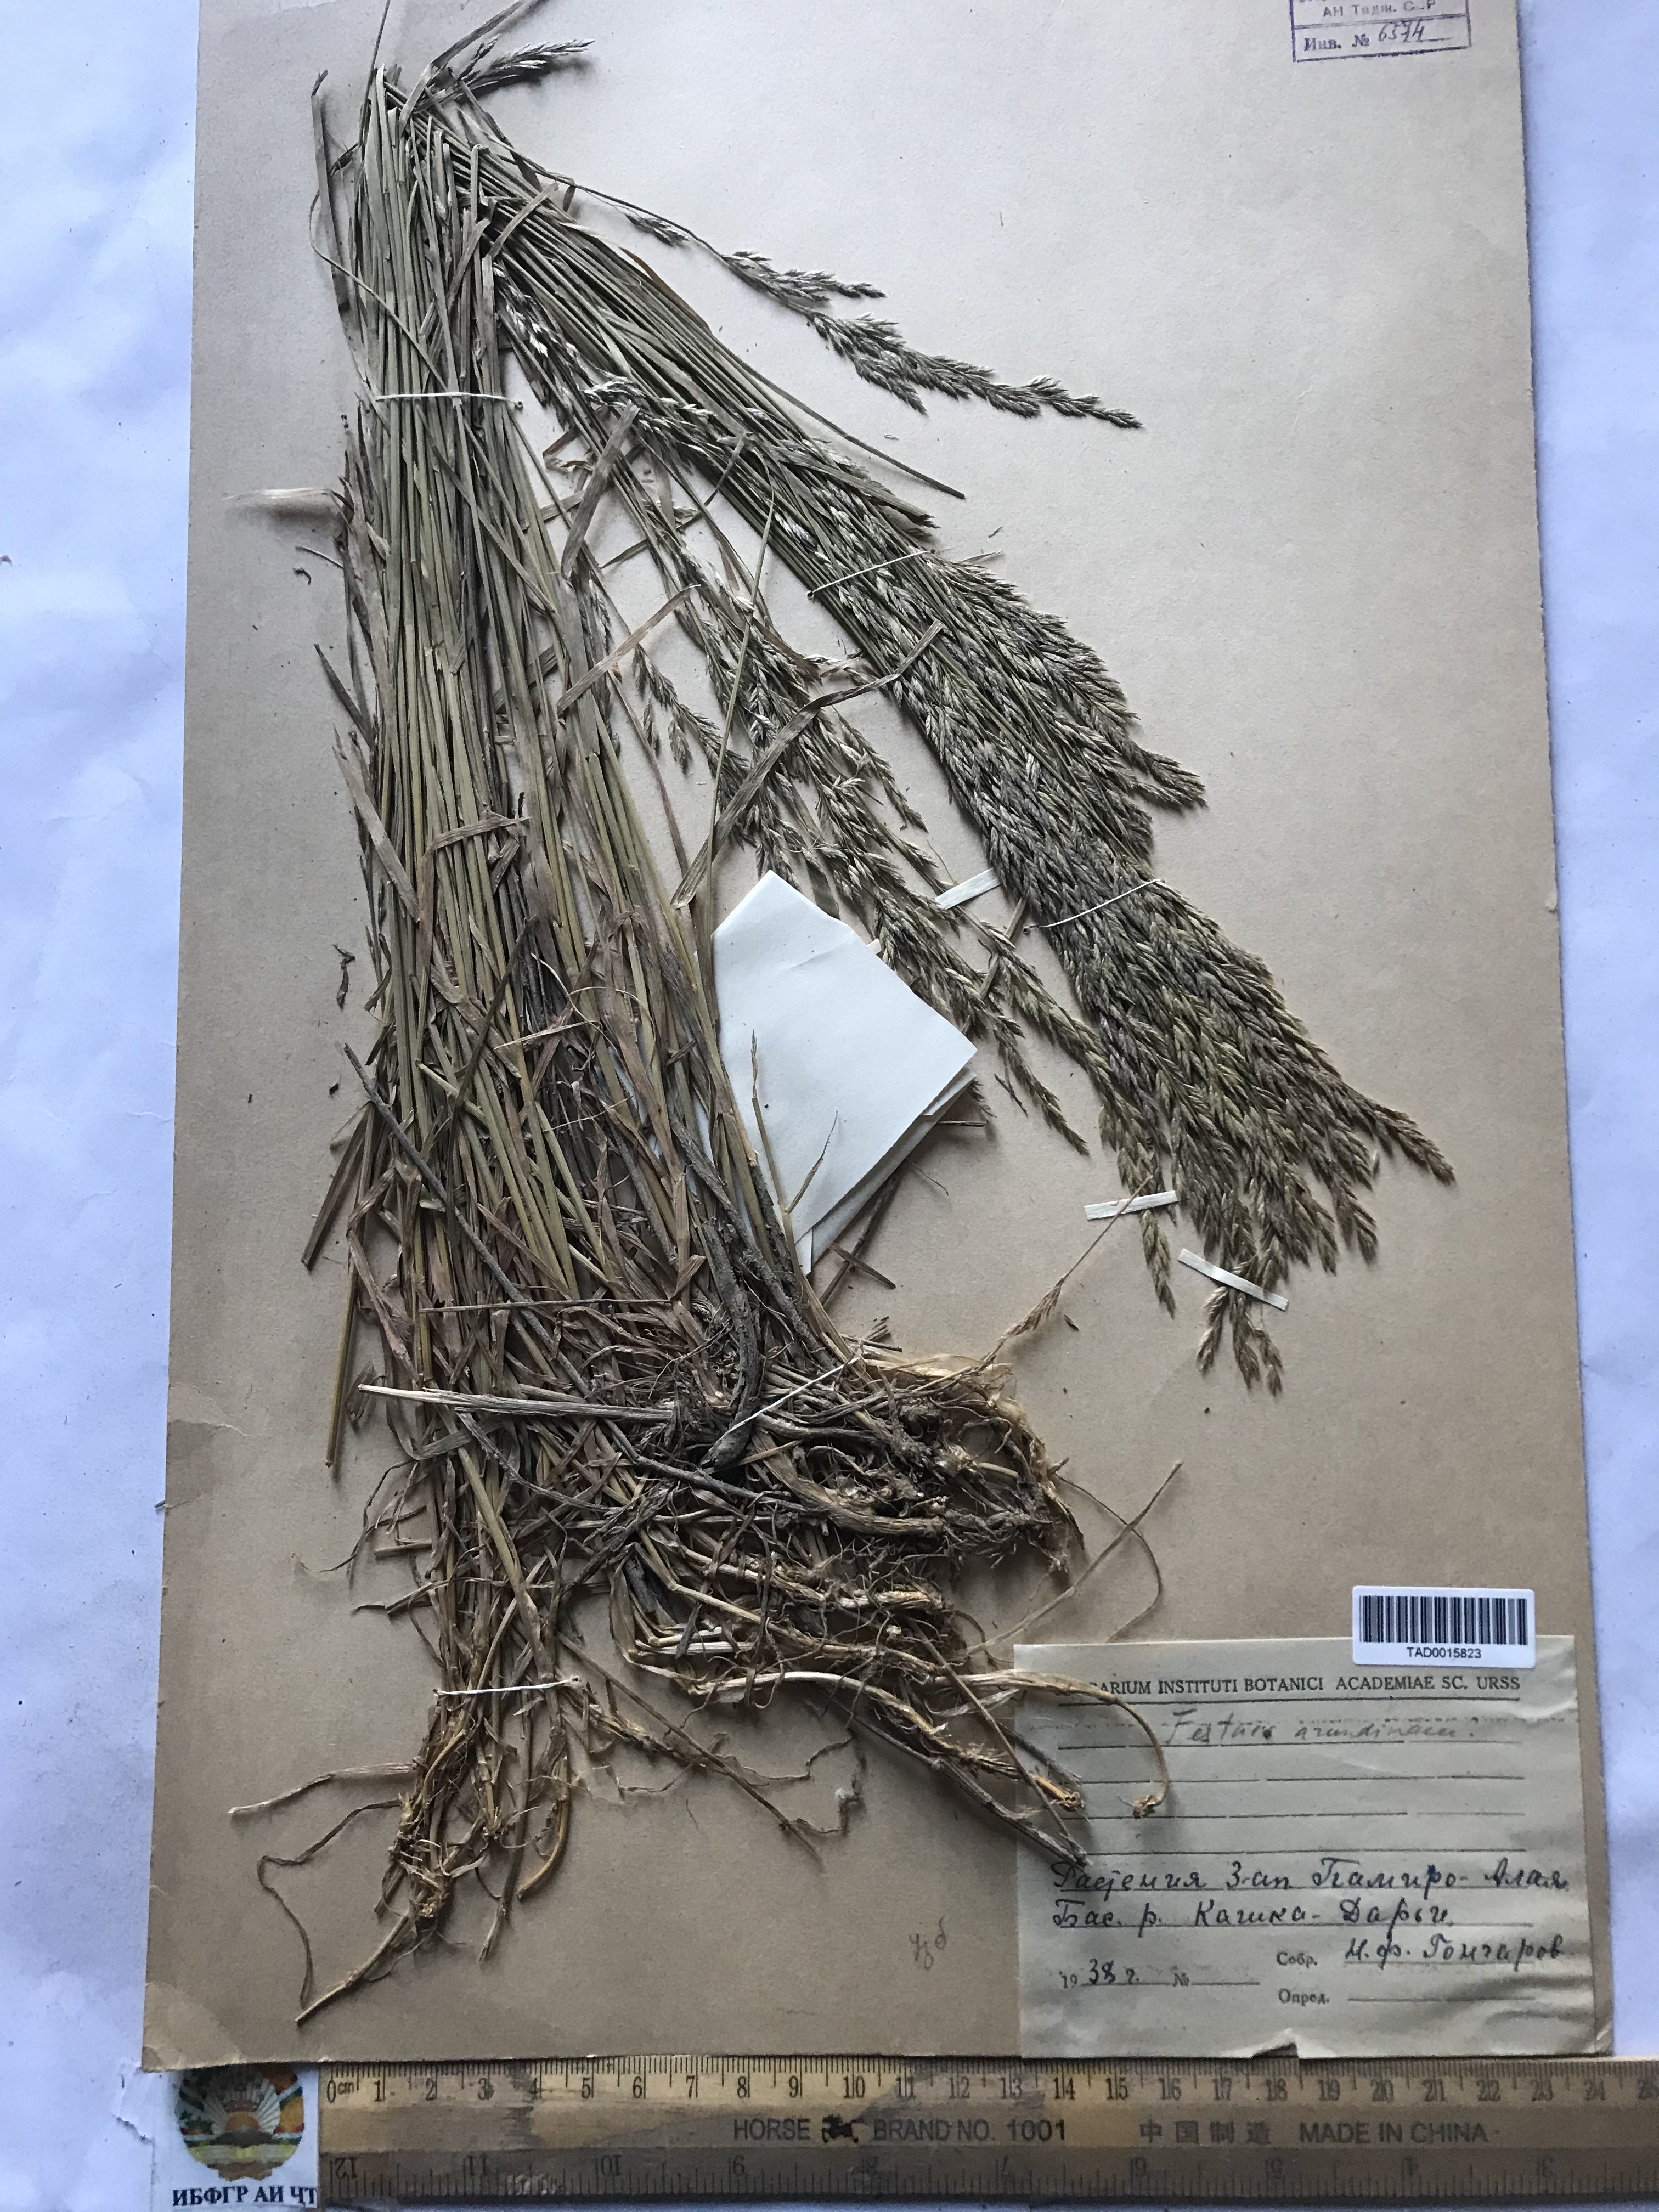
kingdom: Plantae
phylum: Tracheophyta
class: Liliopsida
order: Poales
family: Poaceae
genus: Festuca
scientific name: Festuca rubra
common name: Red fescue
